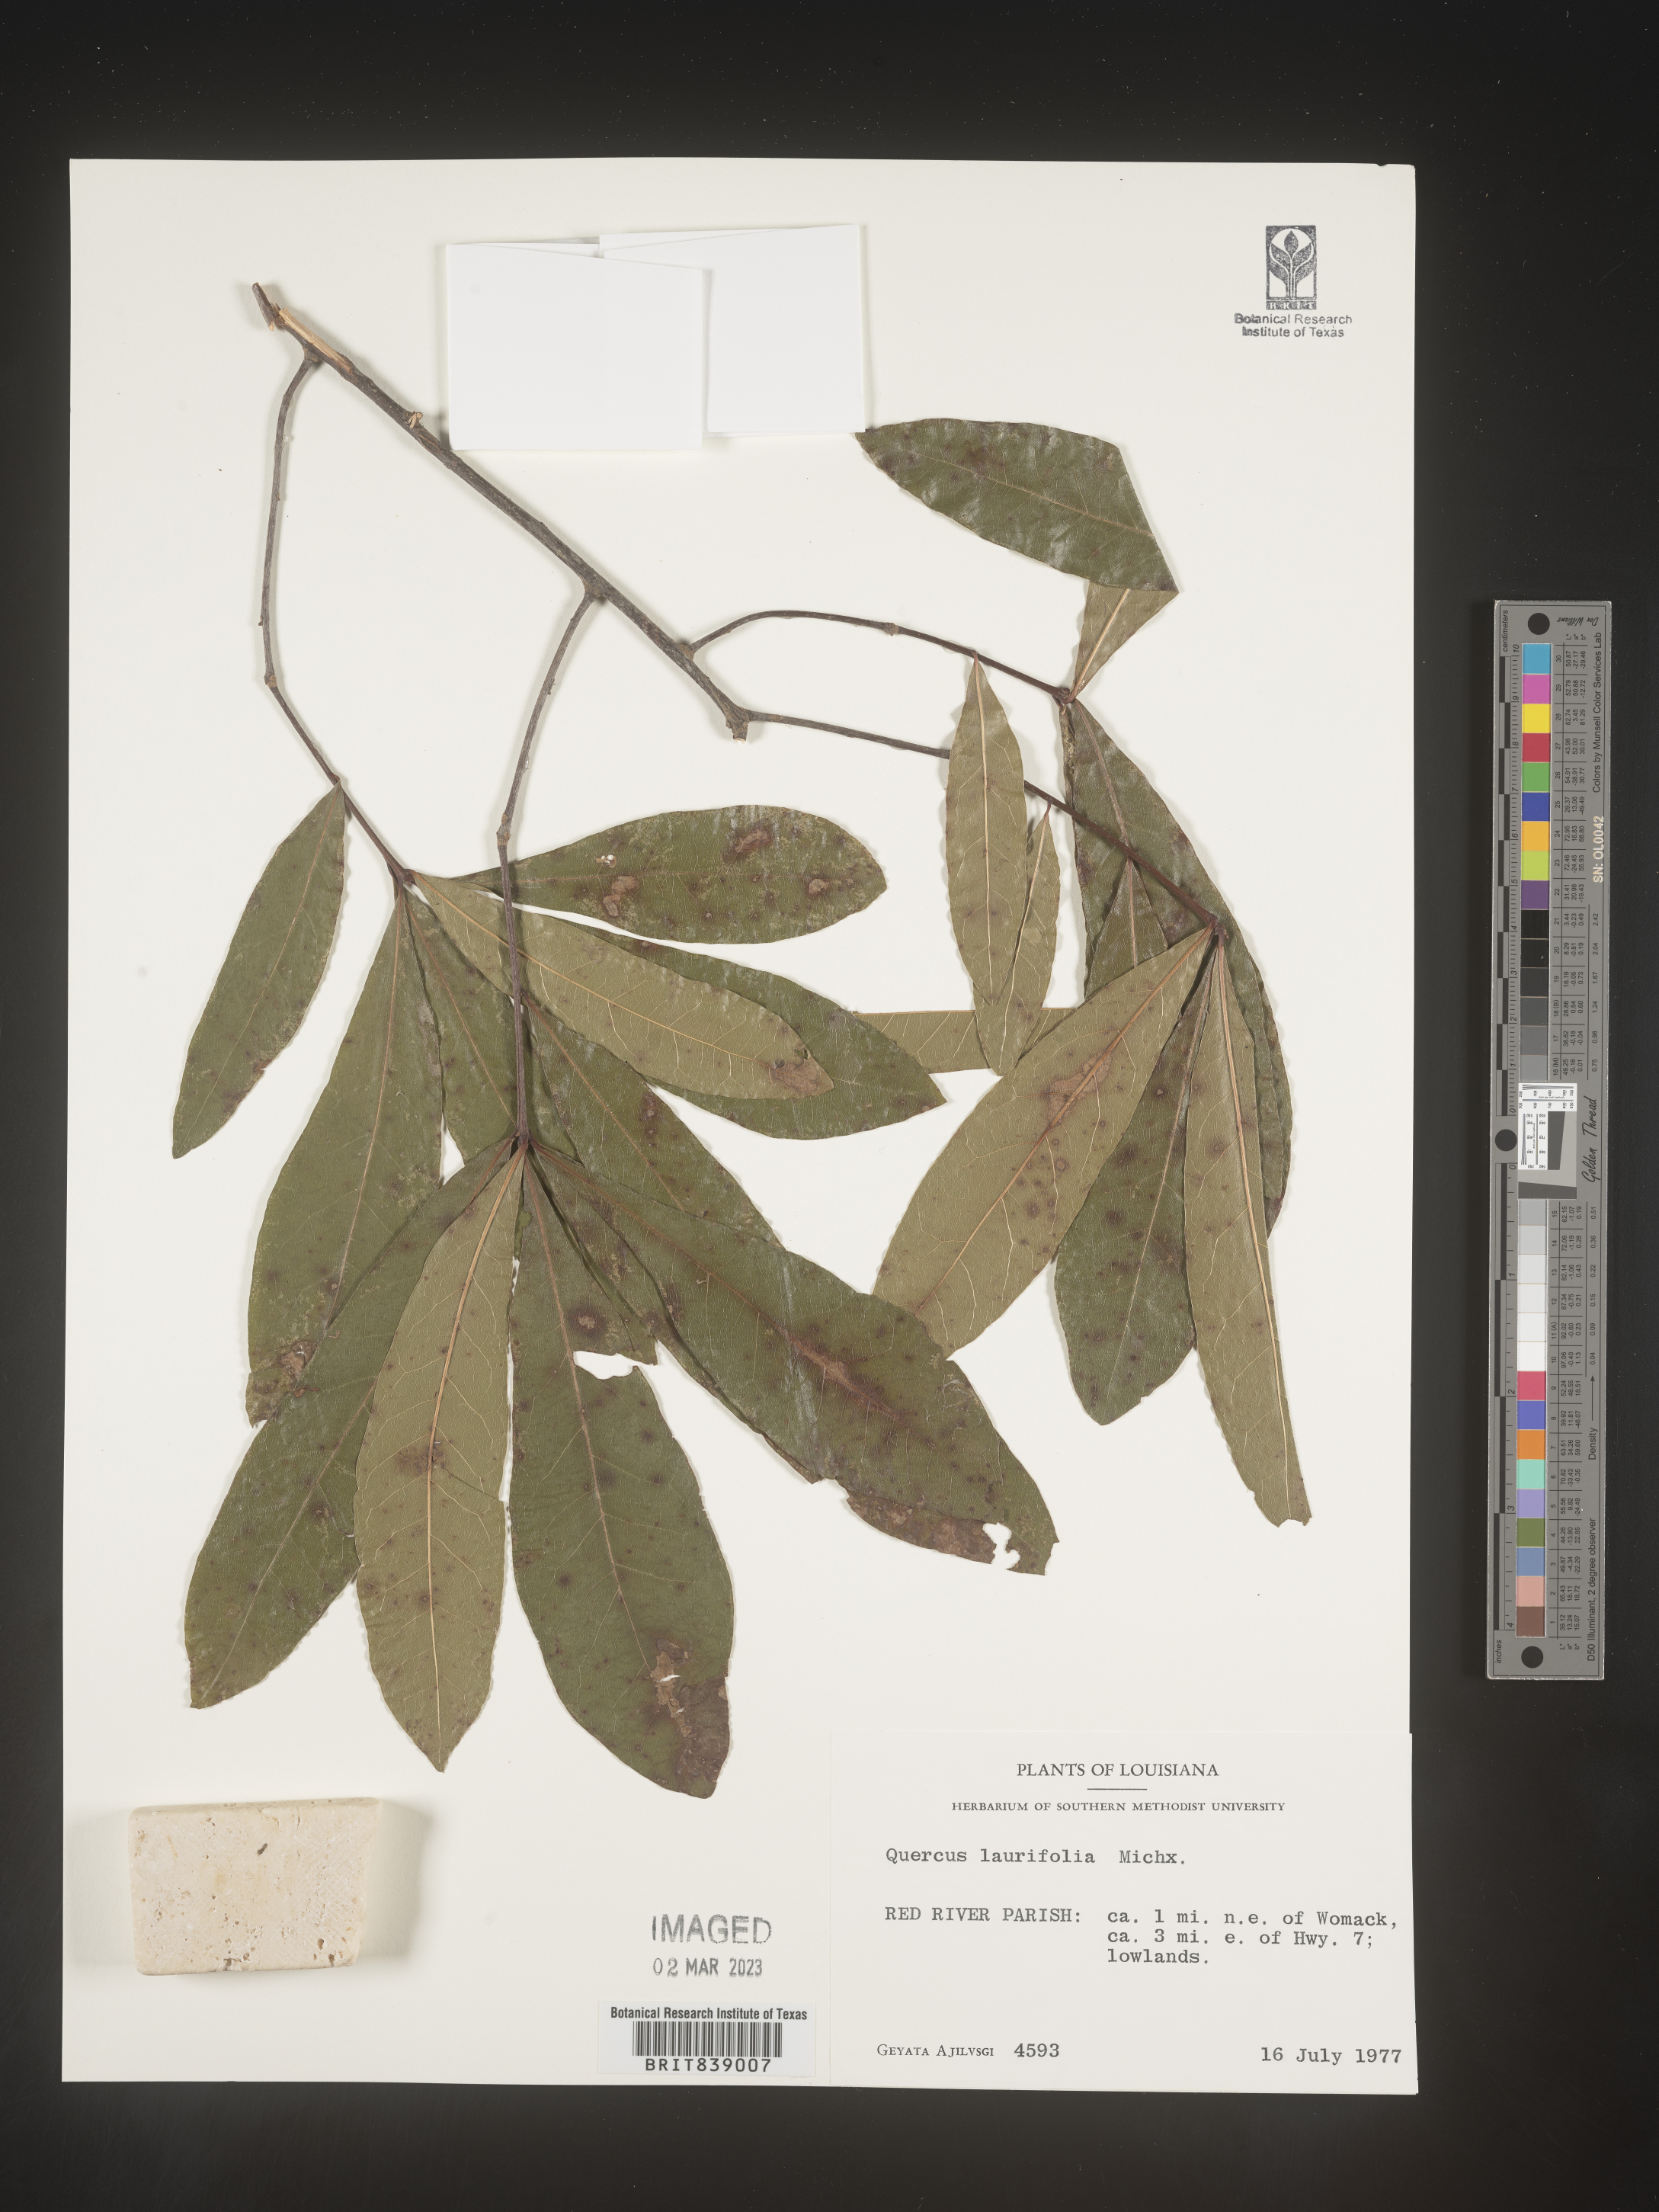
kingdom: Plantae
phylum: Tracheophyta
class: Magnoliopsida
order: Fagales
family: Fagaceae
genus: Quercus
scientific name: Quercus laurifolia
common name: Swamp laurel oak
